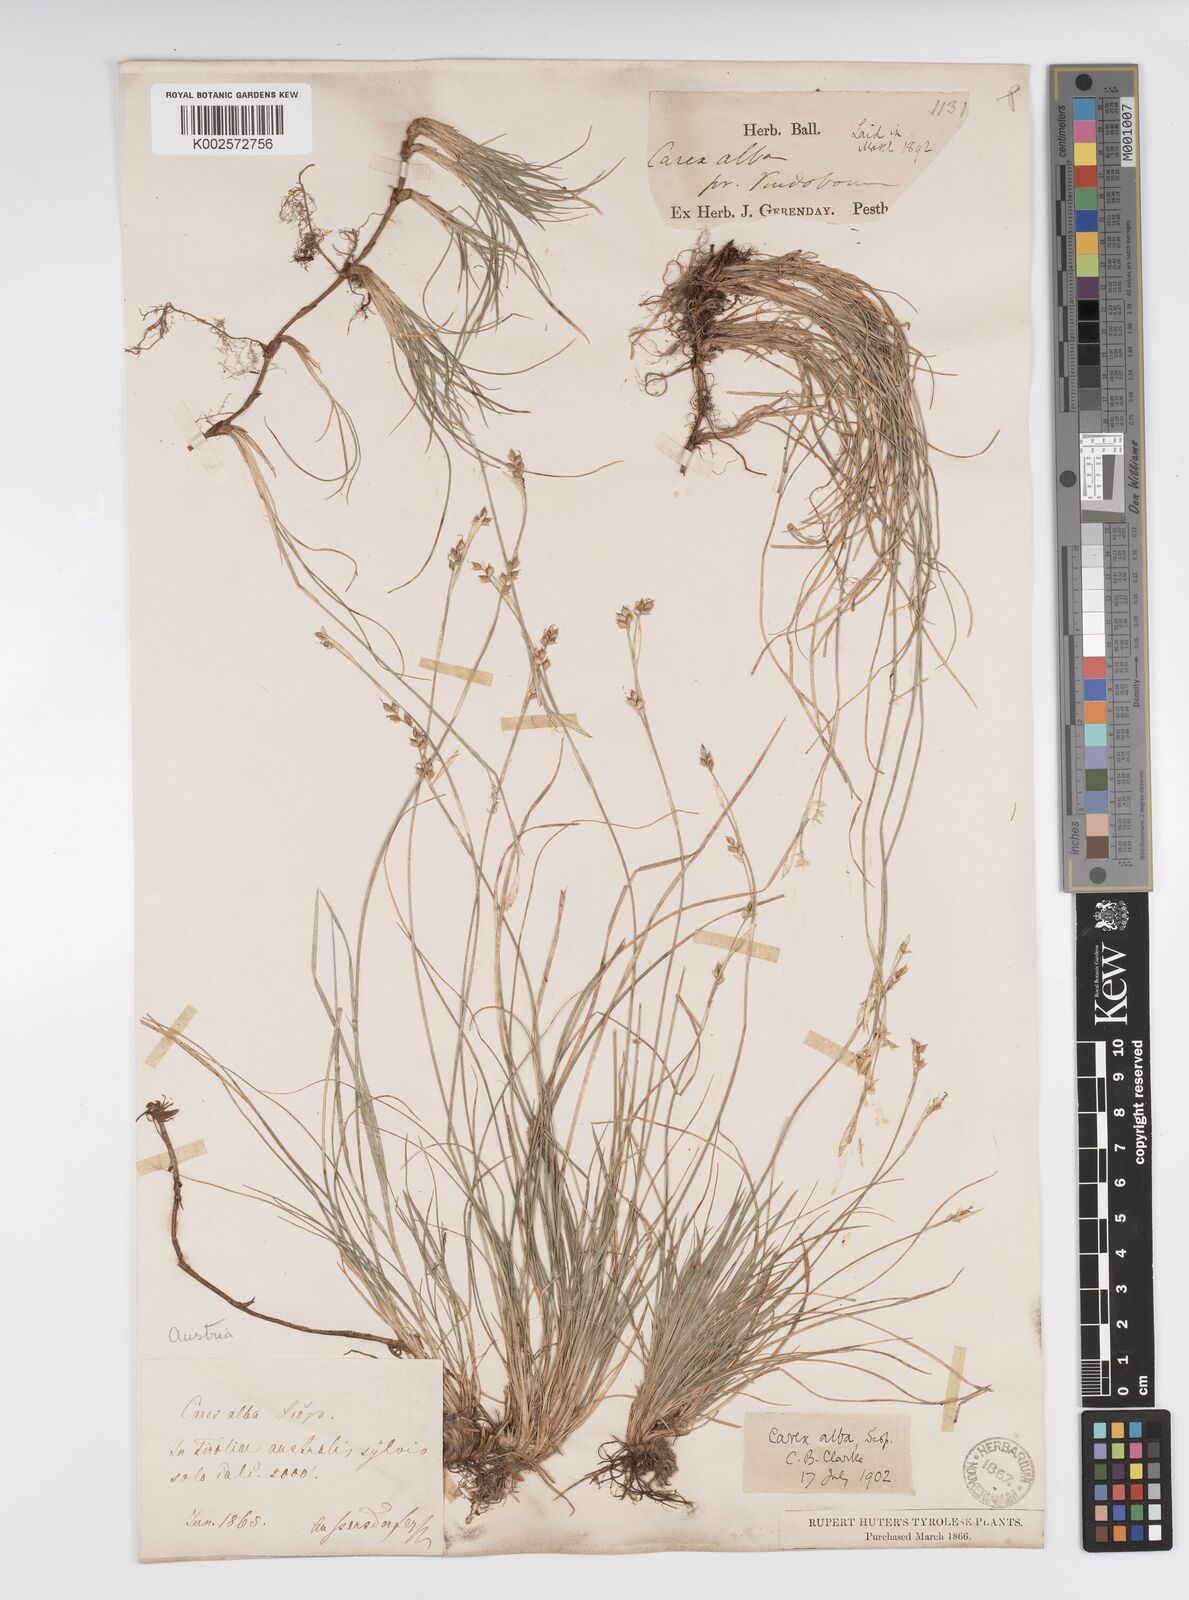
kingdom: Plantae
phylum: Tracheophyta
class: Liliopsida
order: Poales
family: Cyperaceae
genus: Carex
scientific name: Carex alba
